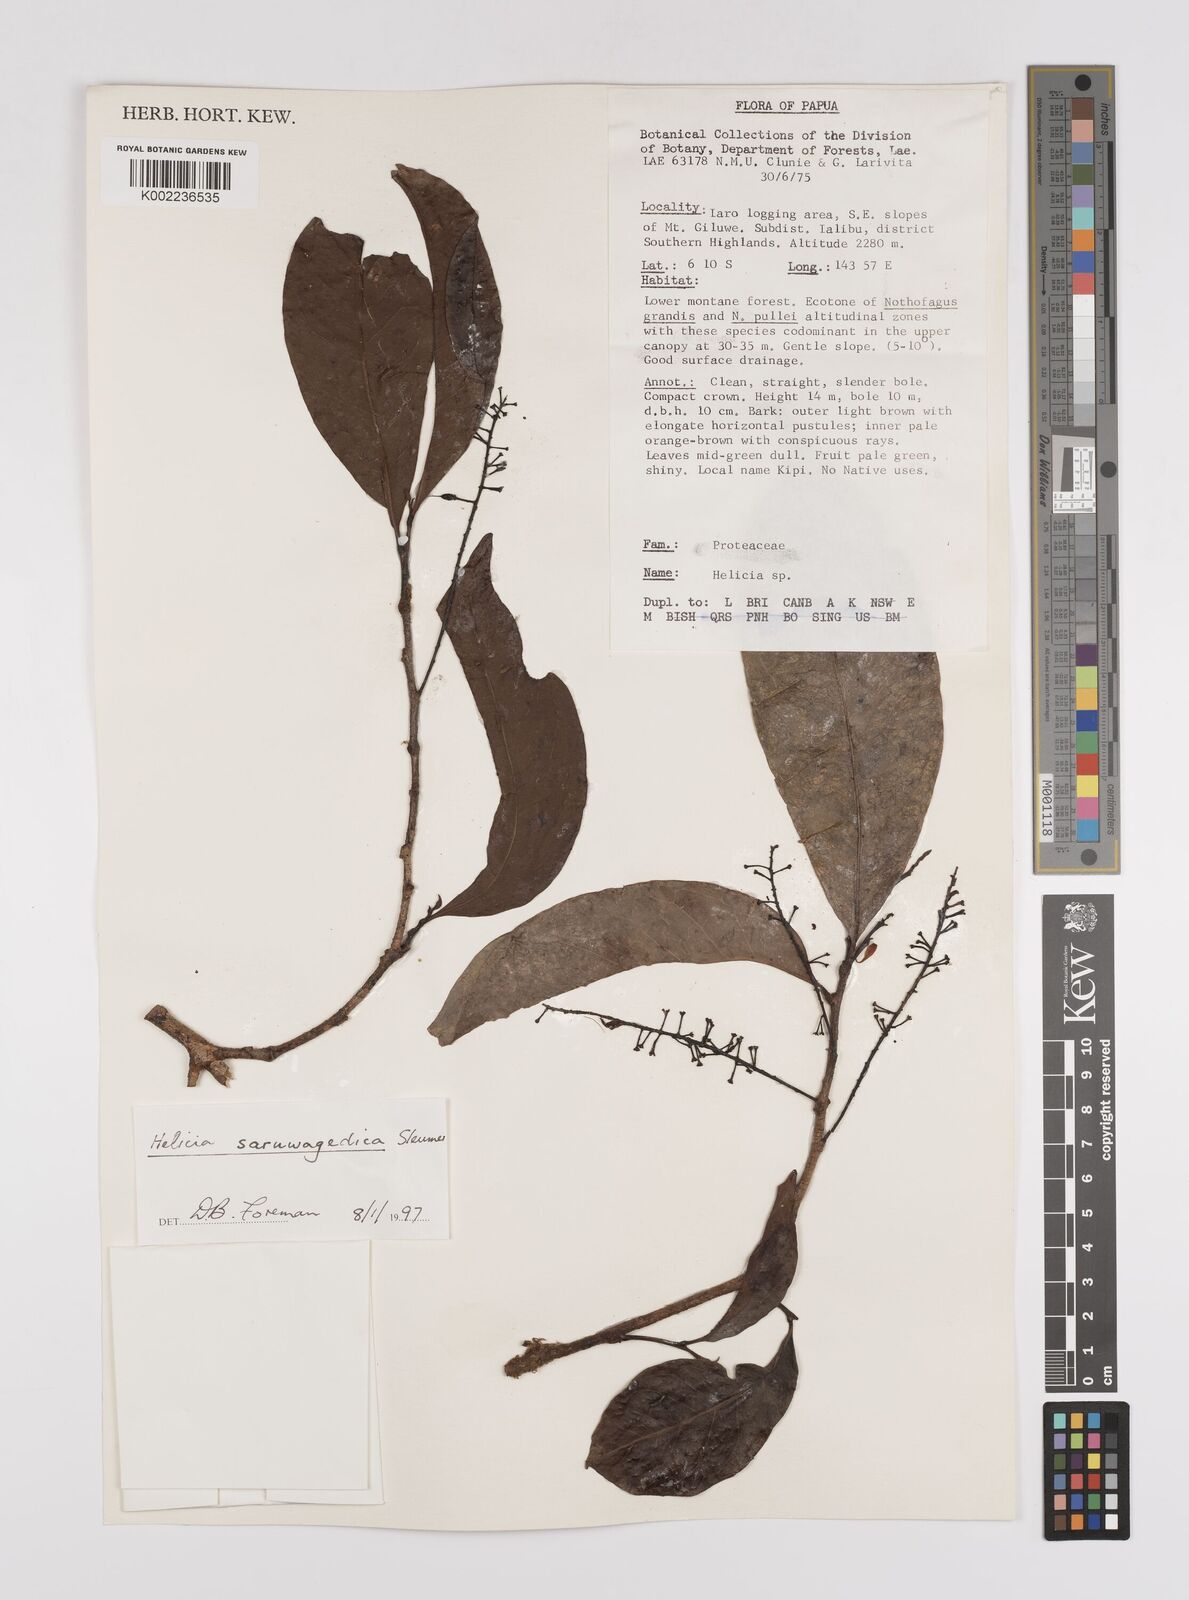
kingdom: Plantae
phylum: Tracheophyta
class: Magnoliopsida
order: Proteales
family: Proteaceae
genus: Helicia
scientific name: Helicia saruwagedica
